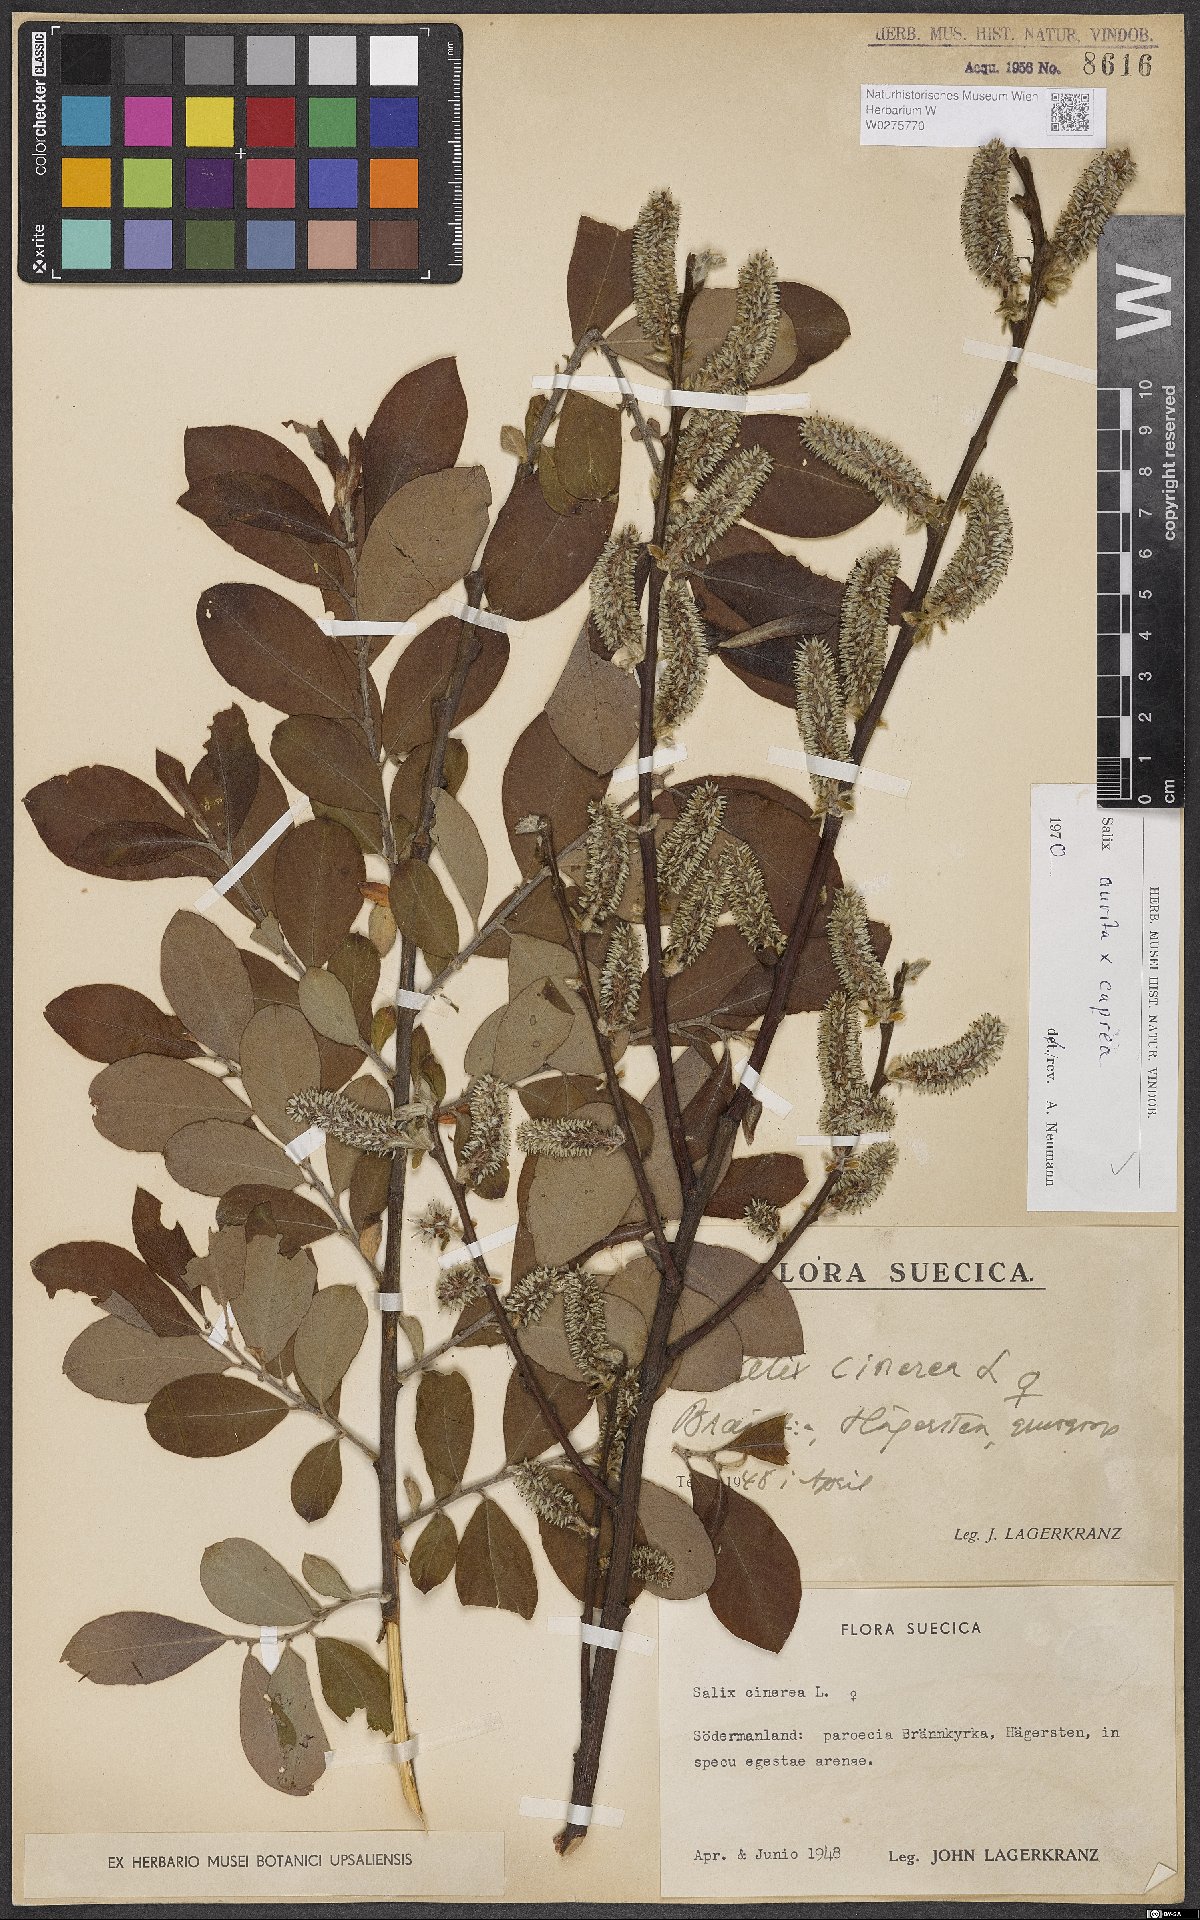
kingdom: Plantae
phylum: Tracheophyta
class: Magnoliopsida
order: Malpighiales
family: Salicaceae
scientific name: Salicaceae
